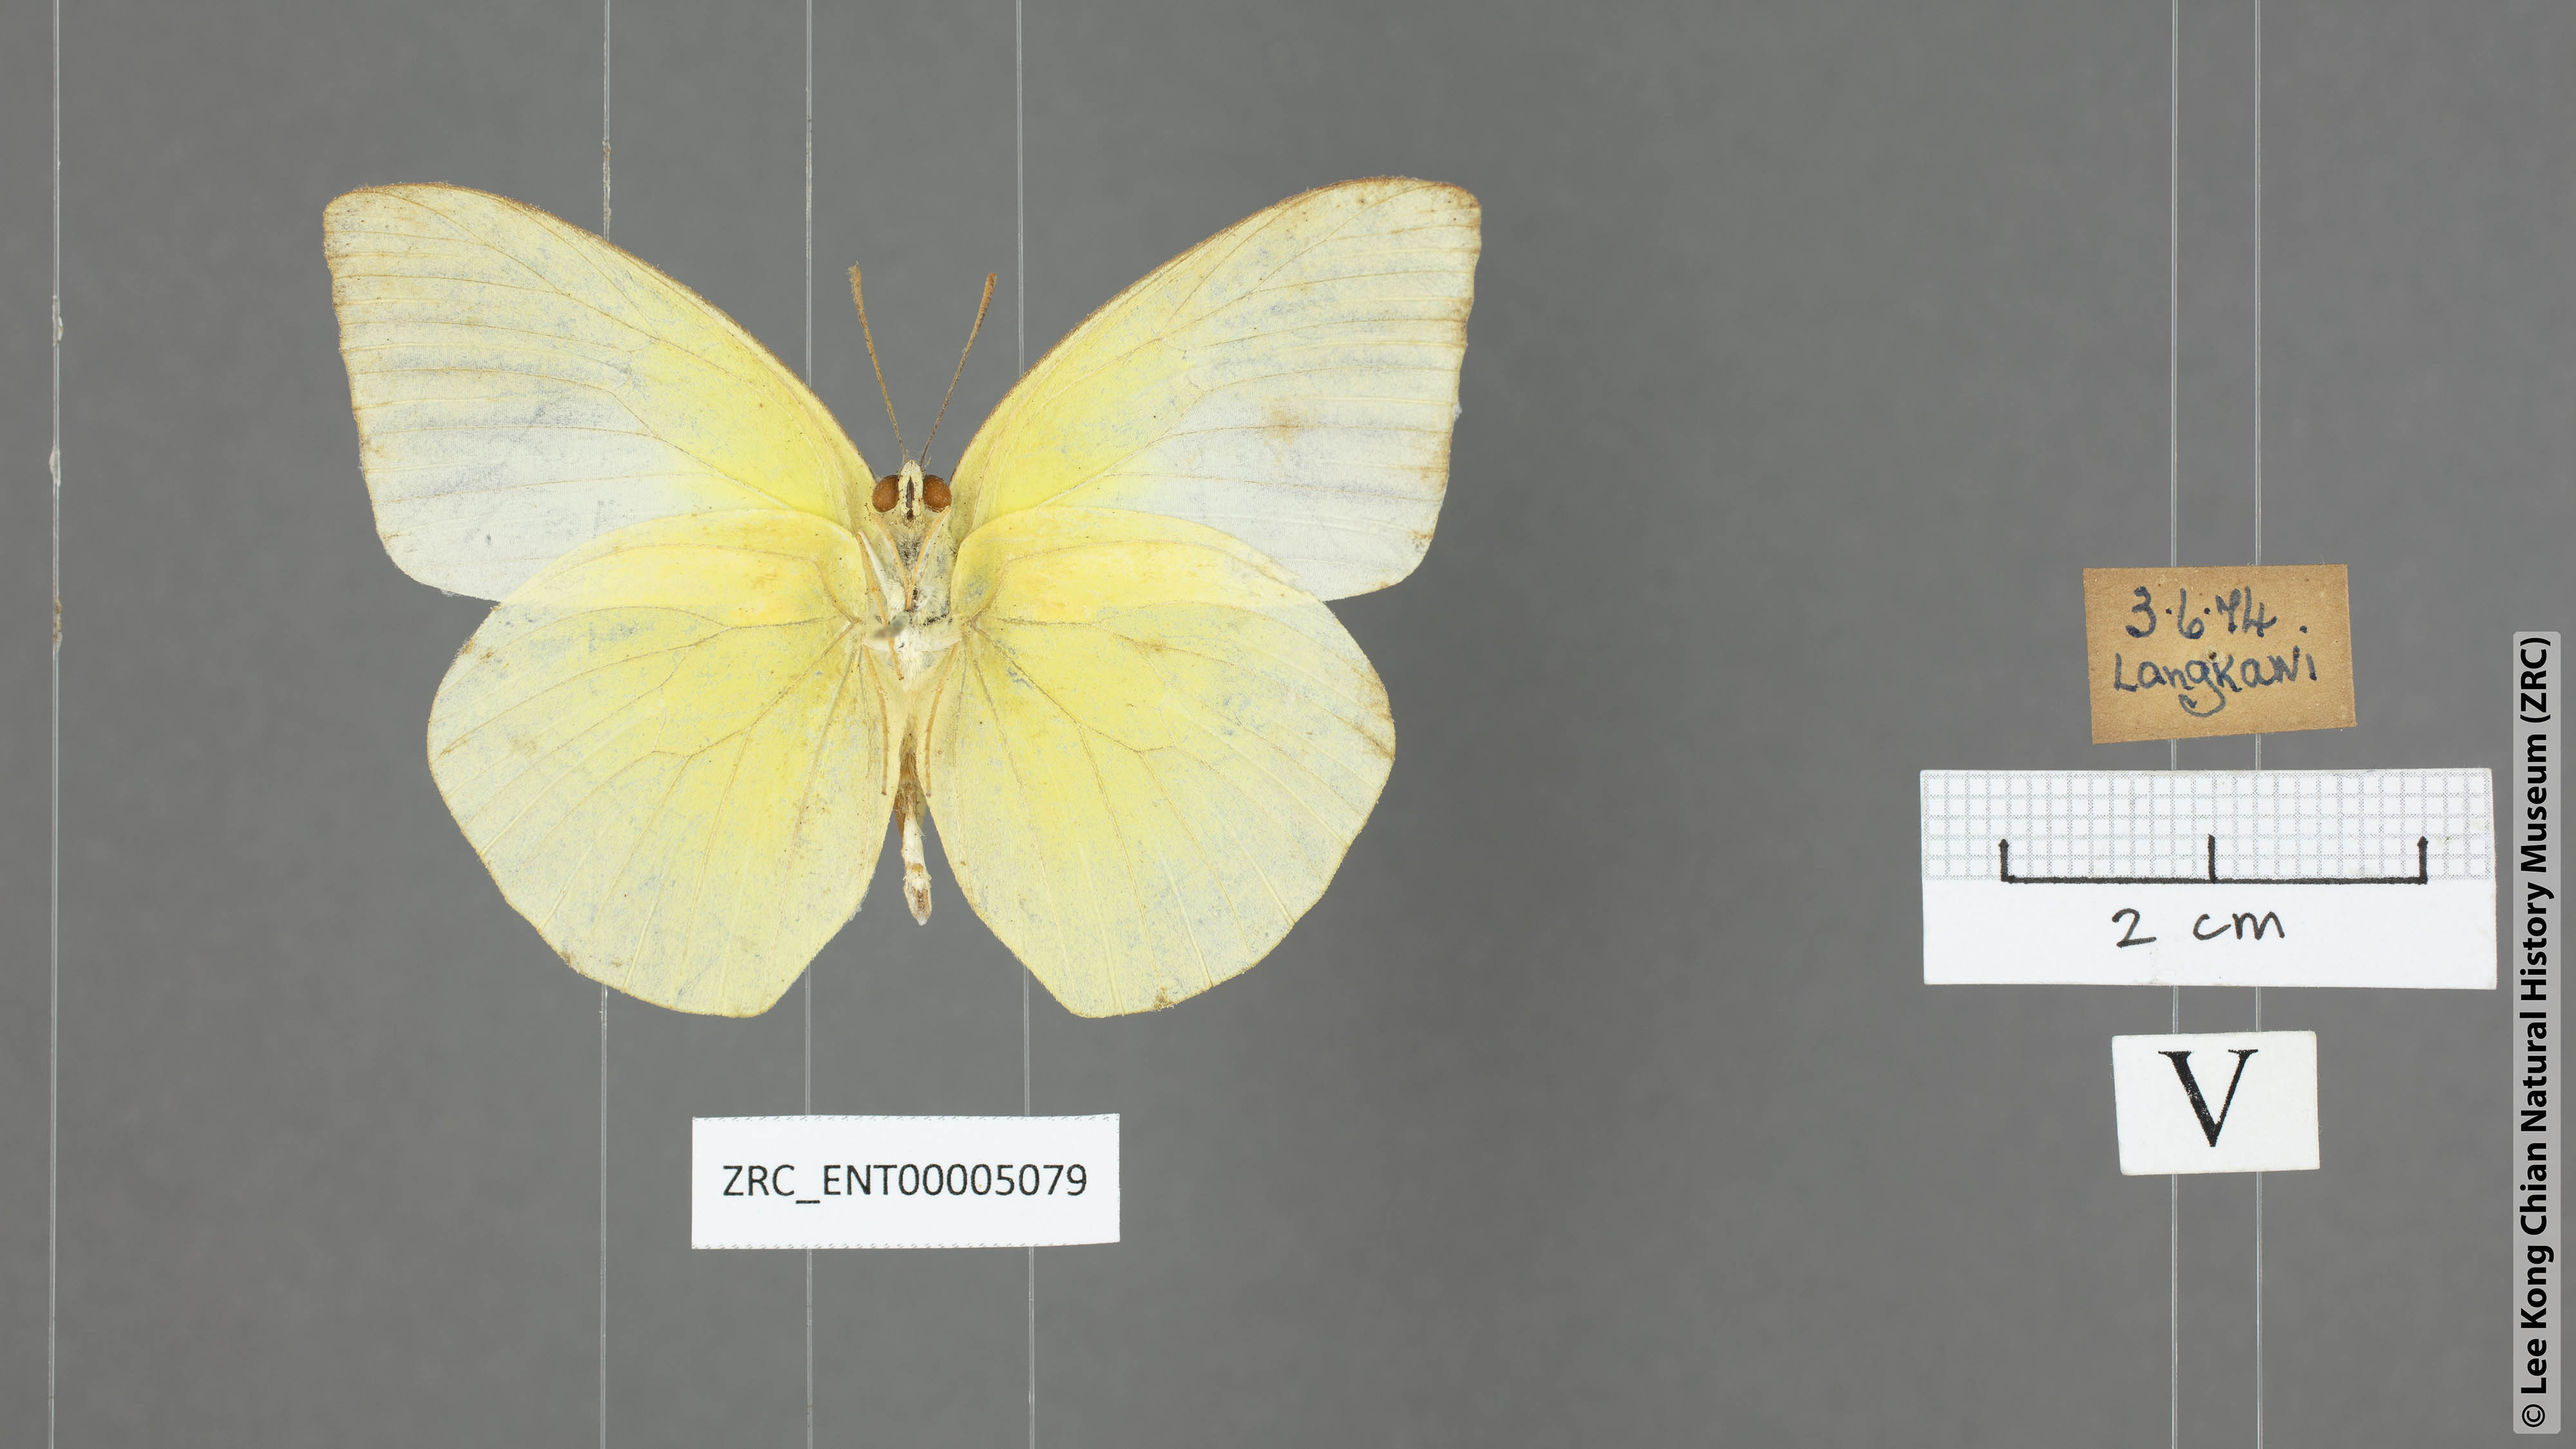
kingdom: Animalia
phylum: Arthropoda
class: Insecta
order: Lepidoptera
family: Pieridae
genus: Catopsilia
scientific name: Catopsilia pomona
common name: Common emigrant
